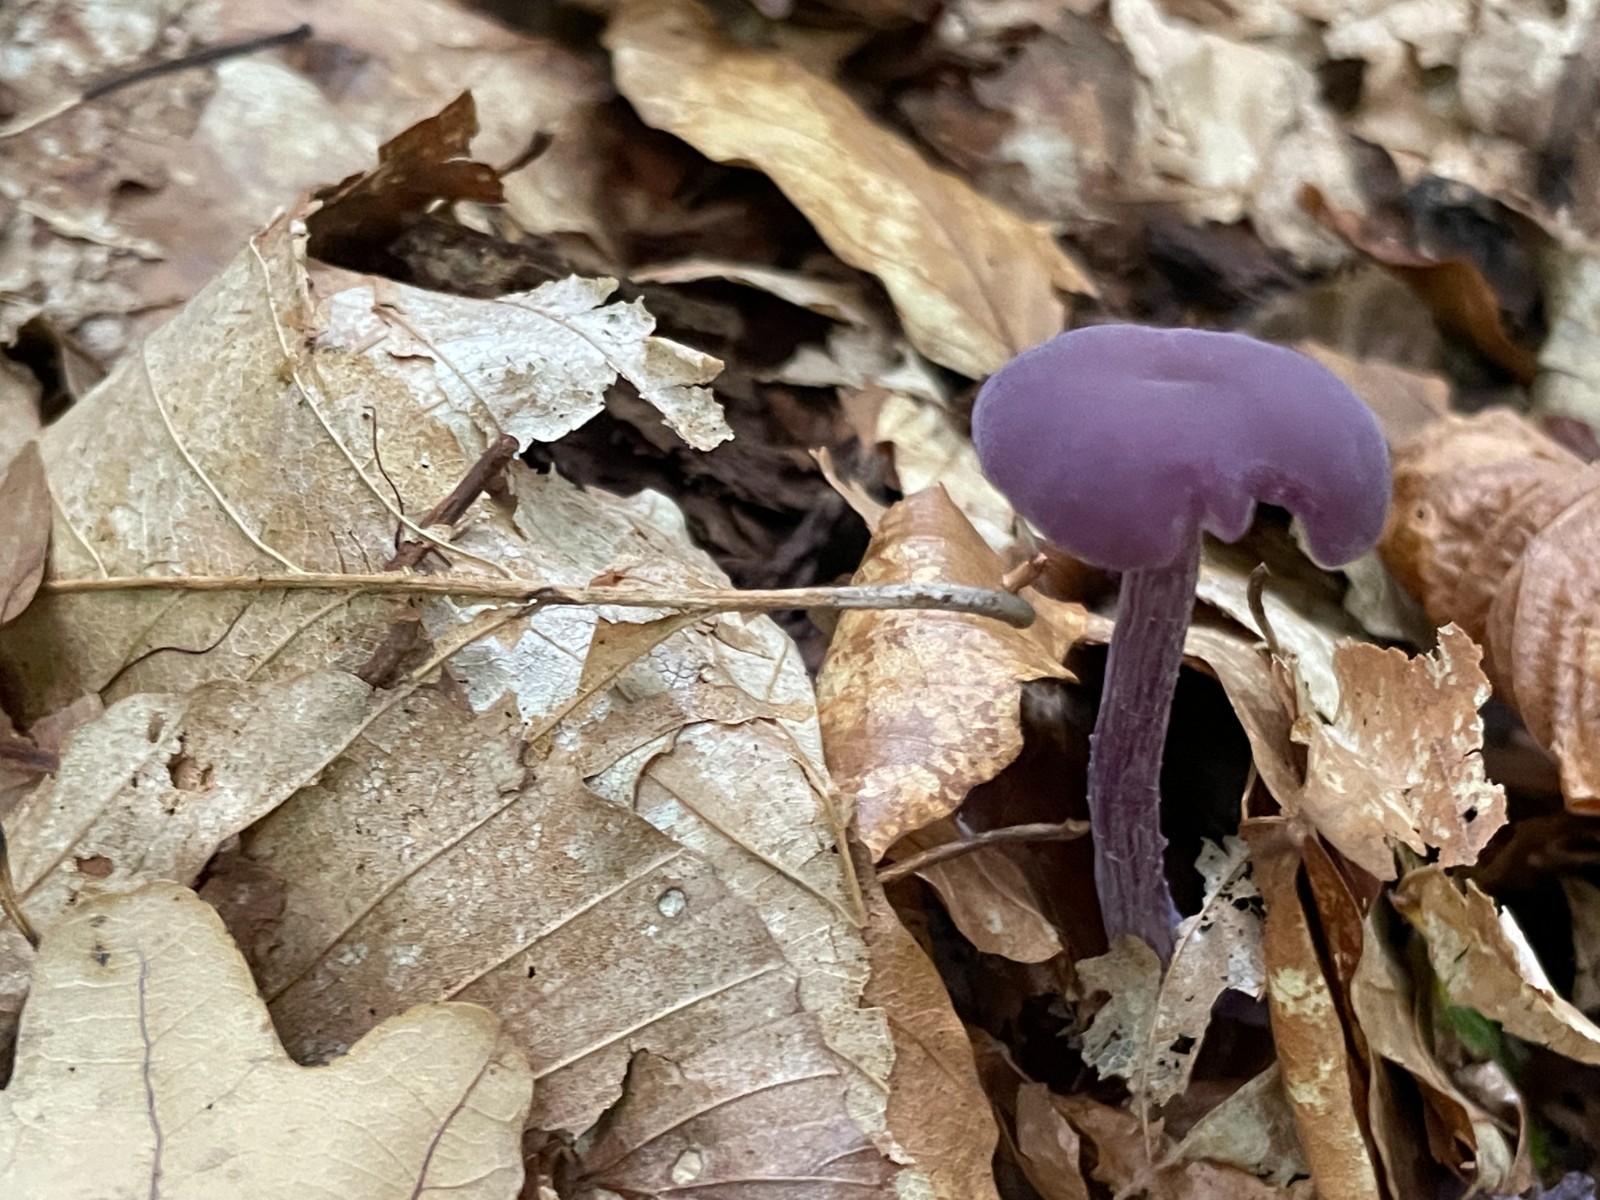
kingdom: Fungi
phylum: Basidiomycota
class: Agaricomycetes
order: Agaricales
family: Hydnangiaceae
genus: Laccaria
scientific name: Laccaria amethystina
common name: violet ametysthat
